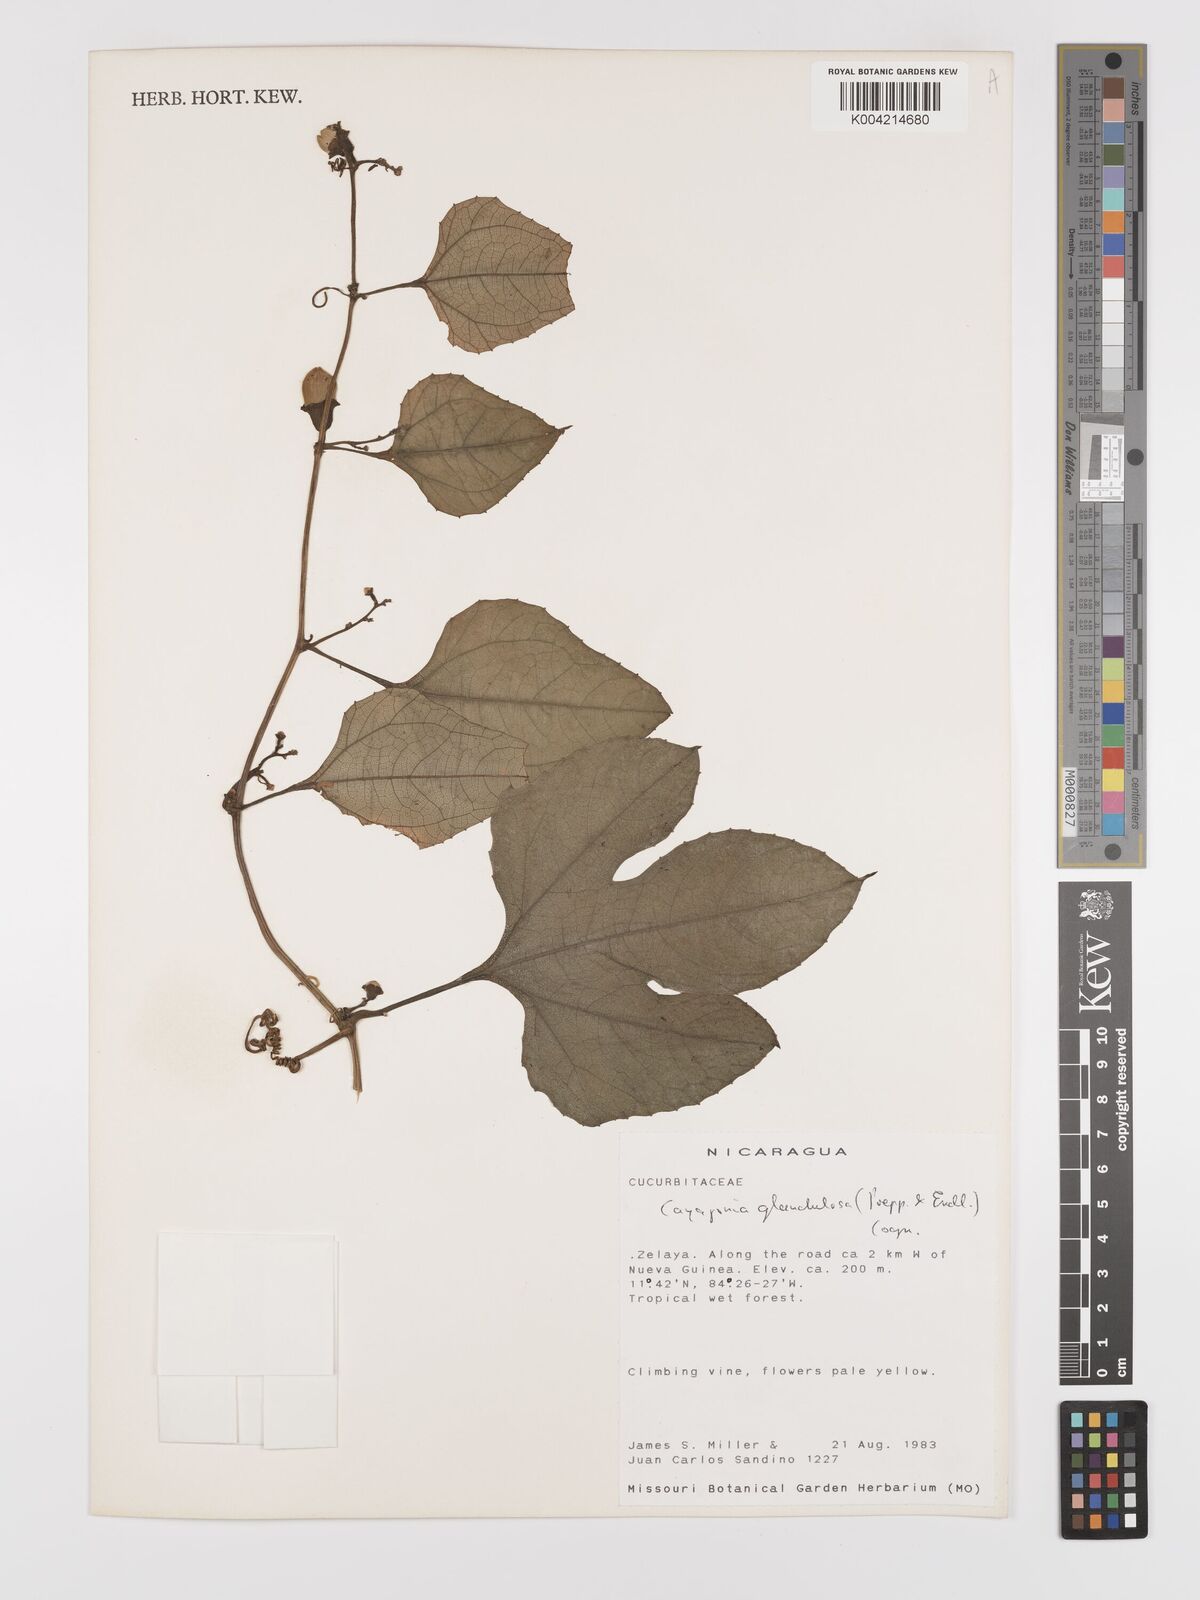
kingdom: Plantae
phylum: Tracheophyta
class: Magnoliopsida
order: Cucurbitales
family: Cucurbitaceae
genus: Cayaponia
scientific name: Cayaponia glandulosa
